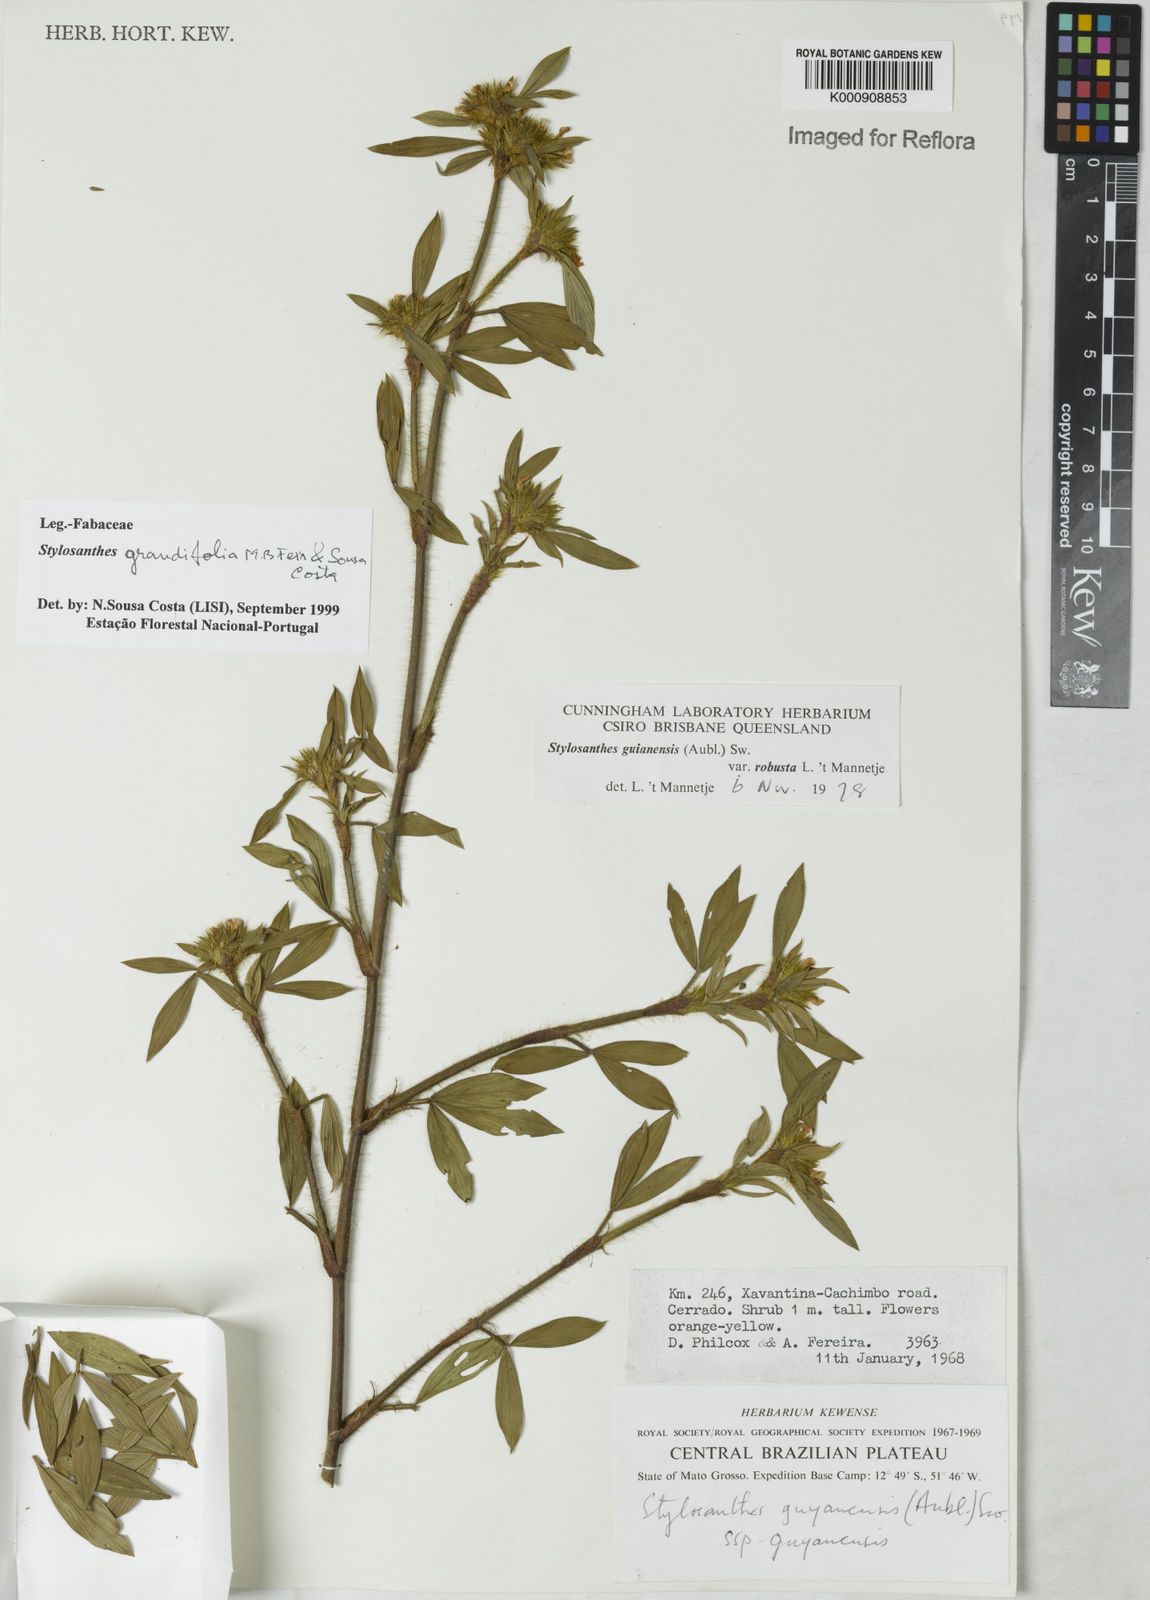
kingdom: Plantae
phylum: Tracheophyta
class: Magnoliopsida
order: Fabales
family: Fabaceae
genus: Stylosanthes
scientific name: Stylosanthes guianensis
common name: Pencil flower
